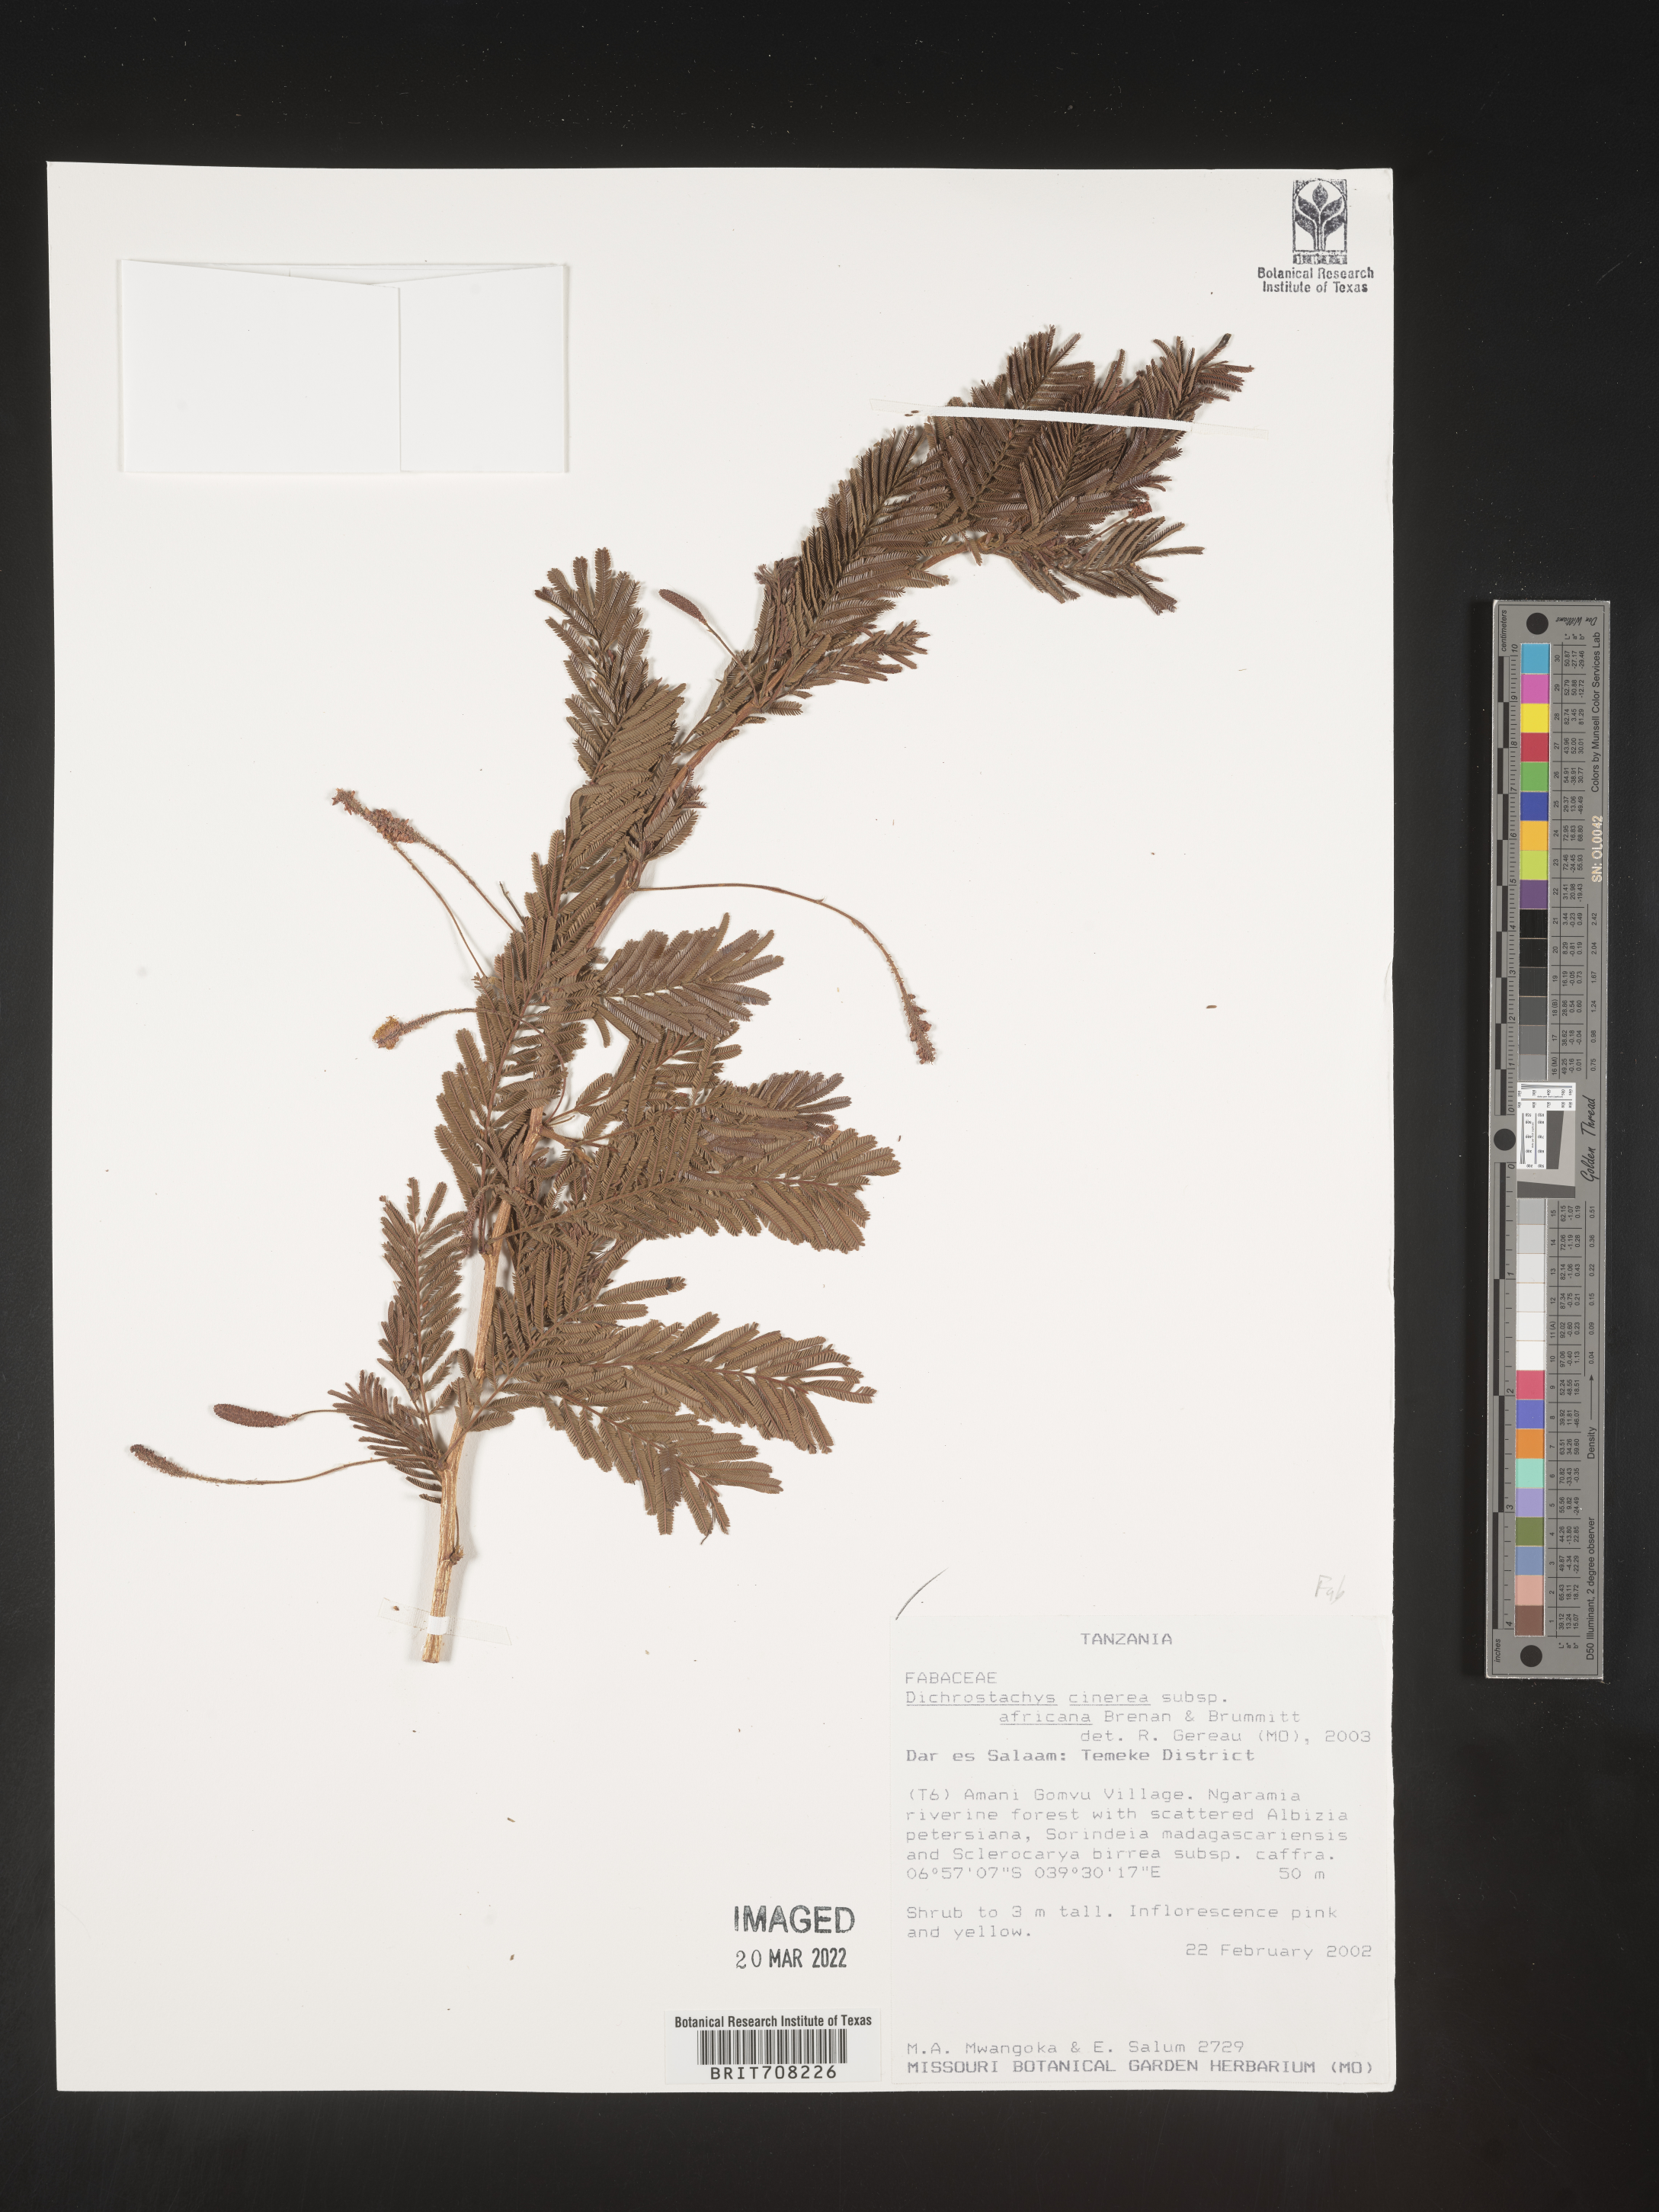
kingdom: Plantae
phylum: Tracheophyta
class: Magnoliopsida
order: Fabales
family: Fabaceae
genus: Dichrostachys
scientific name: Dichrostachys
